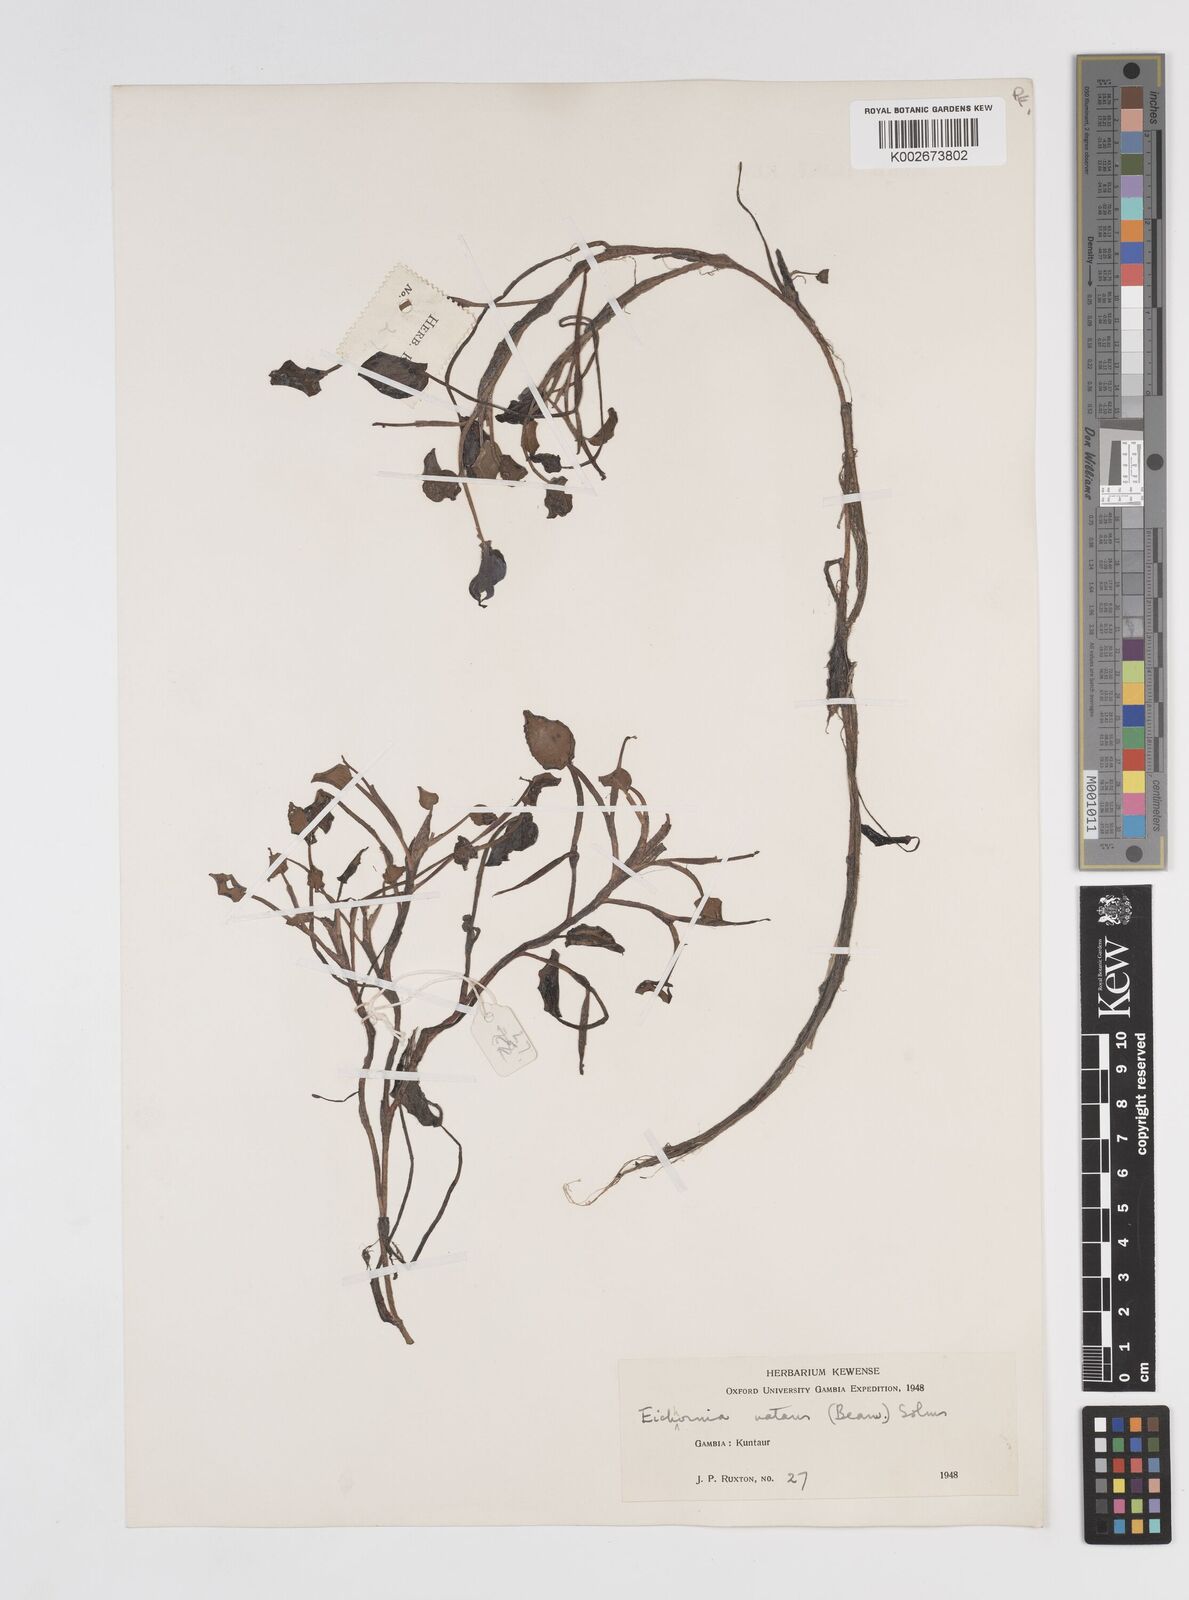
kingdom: Plantae
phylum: Tracheophyta
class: Liliopsida
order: Commelinales
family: Pontederiaceae
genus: Pontederia
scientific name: Pontederia diversifolia
